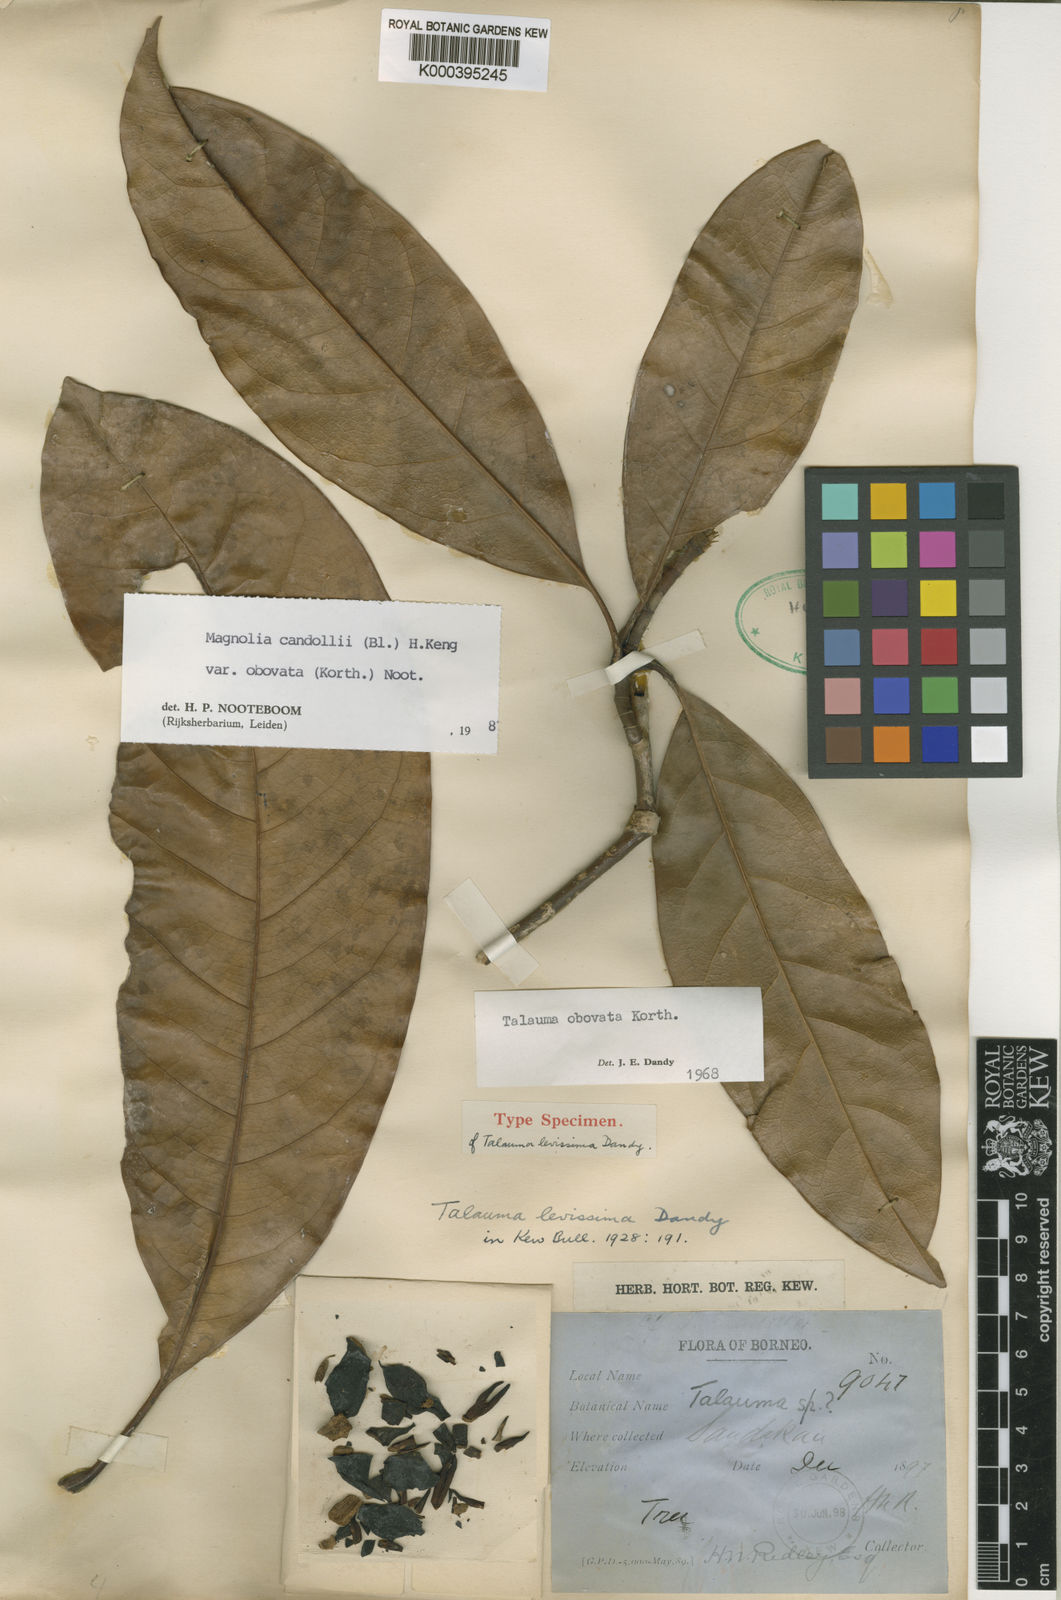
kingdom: Plantae
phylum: Tracheophyta
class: Magnoliopsida
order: Magnoliales
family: Magnoliaceae
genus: Magnolia
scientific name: Magnolia betongensis
